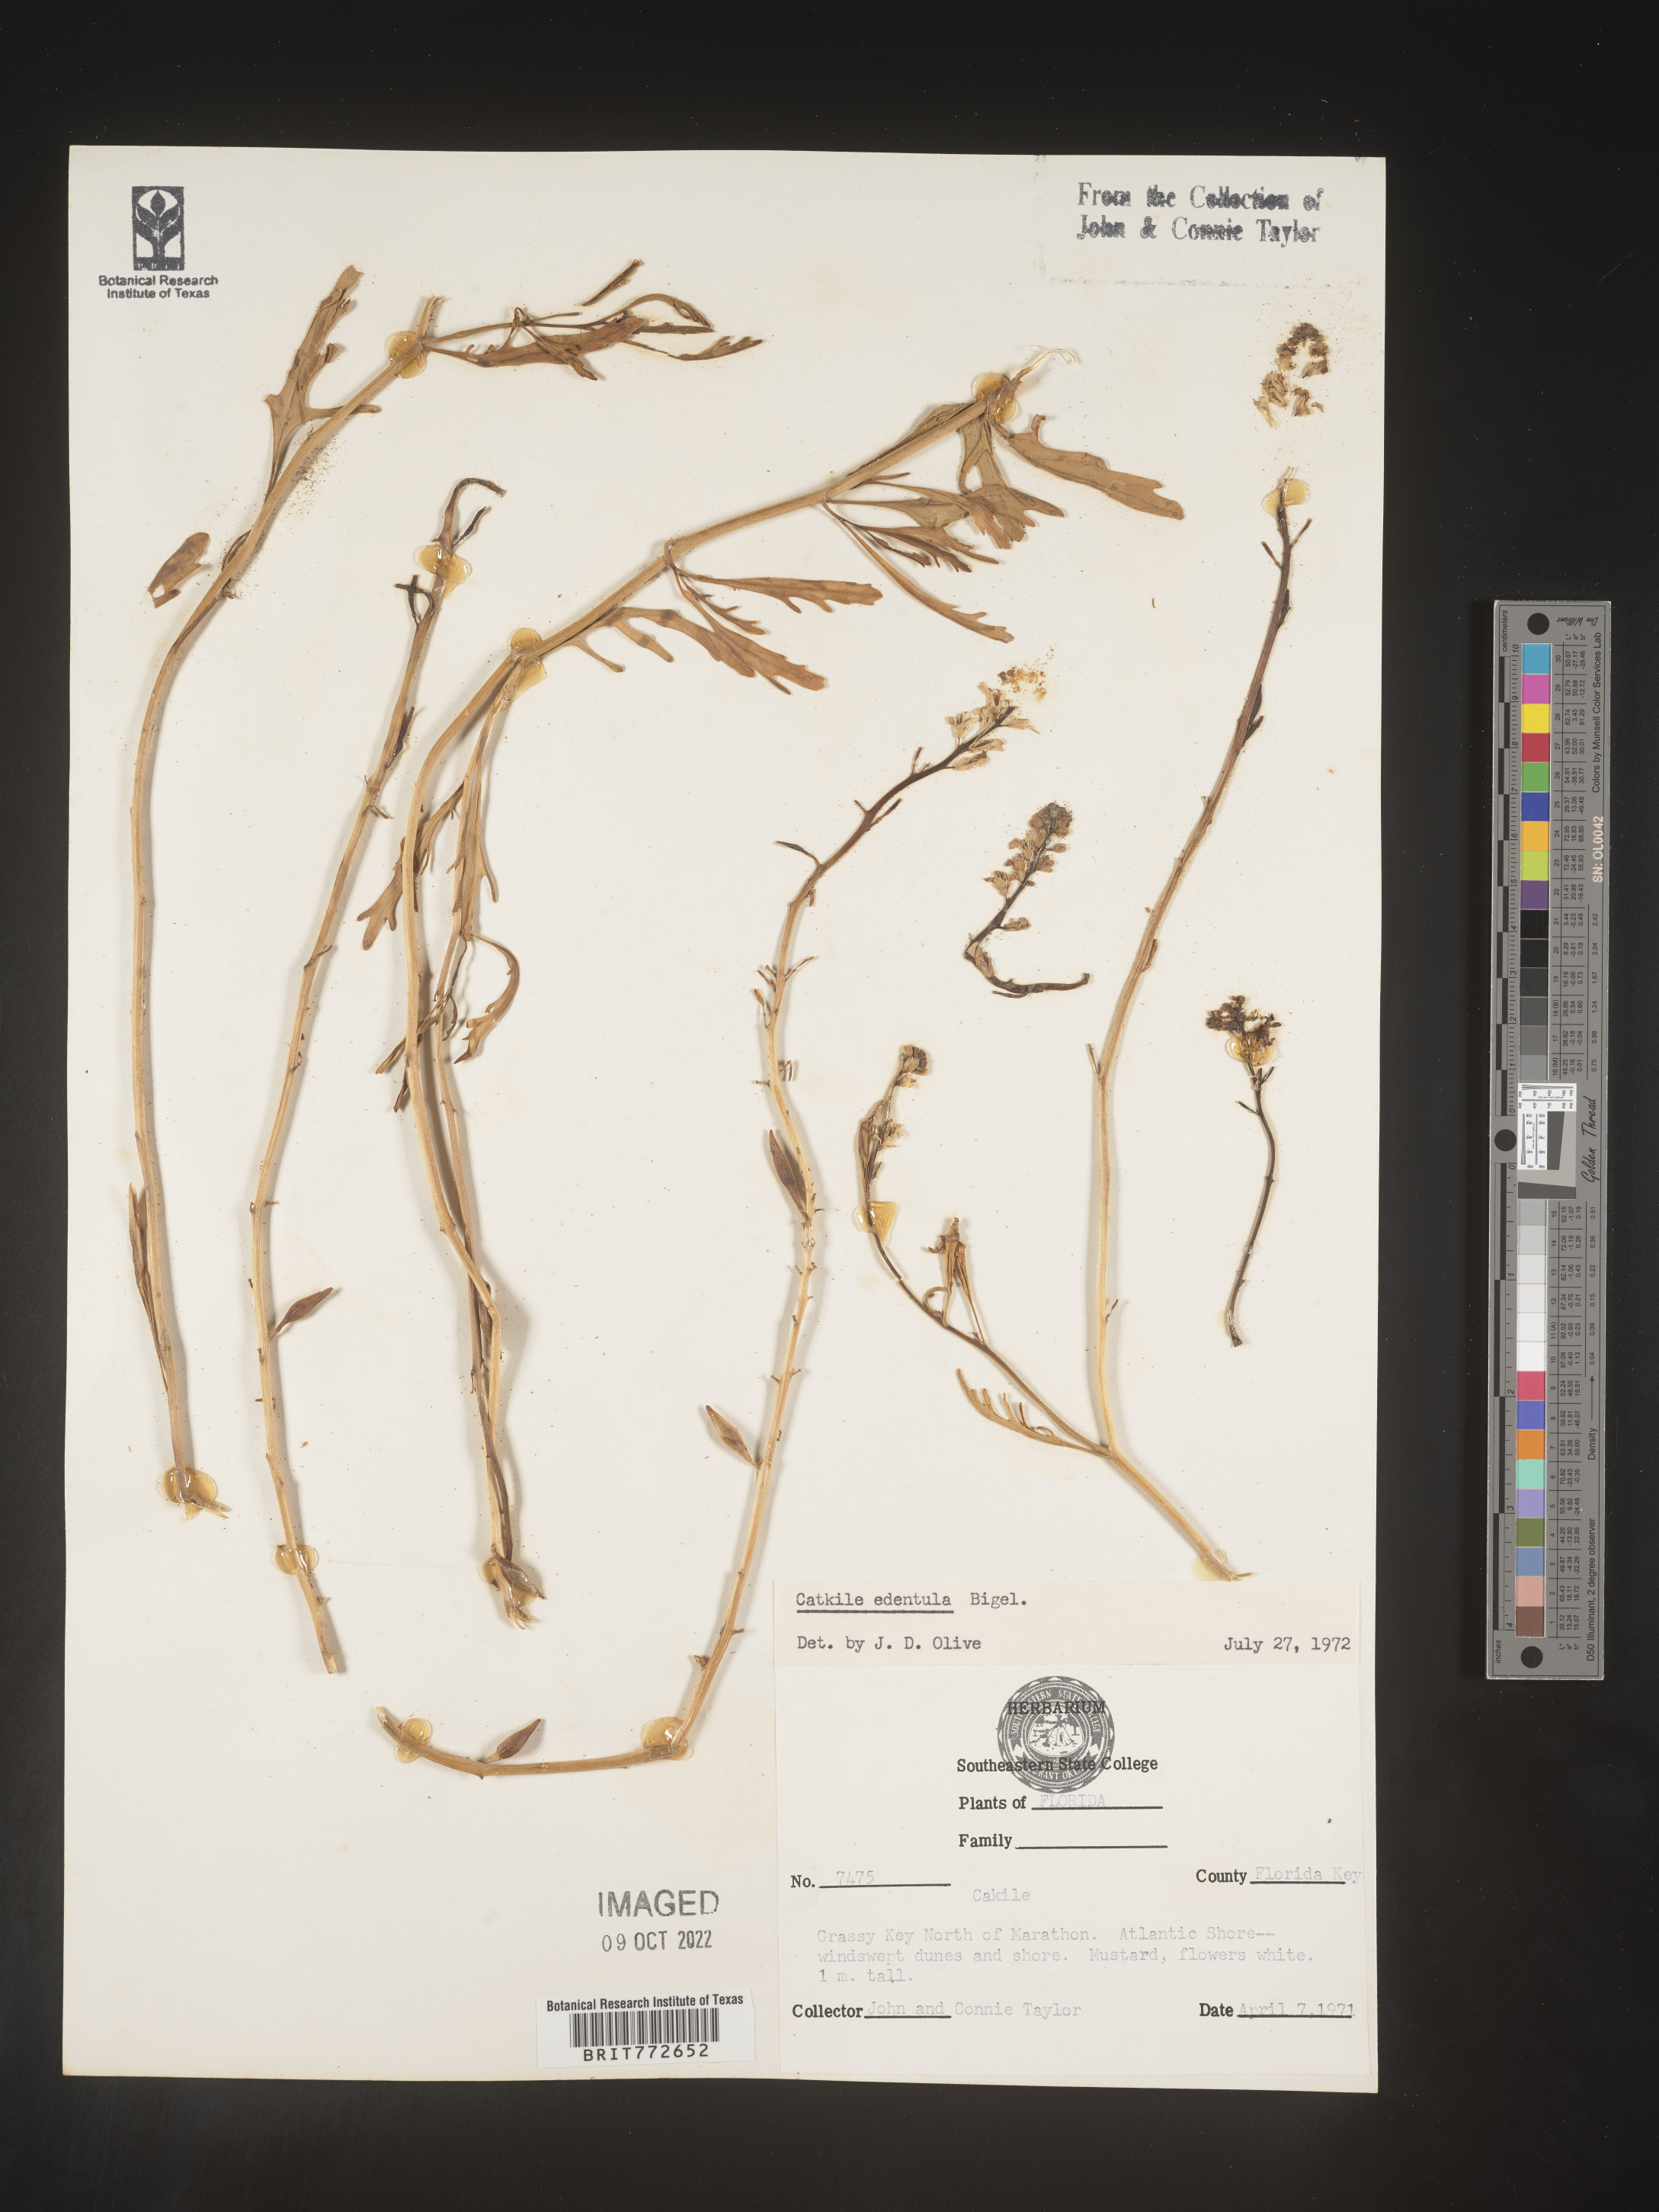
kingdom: Plantae
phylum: Tracheophyta
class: Magnoliopsida
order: Brassicales
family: Brassicaceae
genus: Cakile
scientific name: Cakile edentula
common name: American sea rocket
